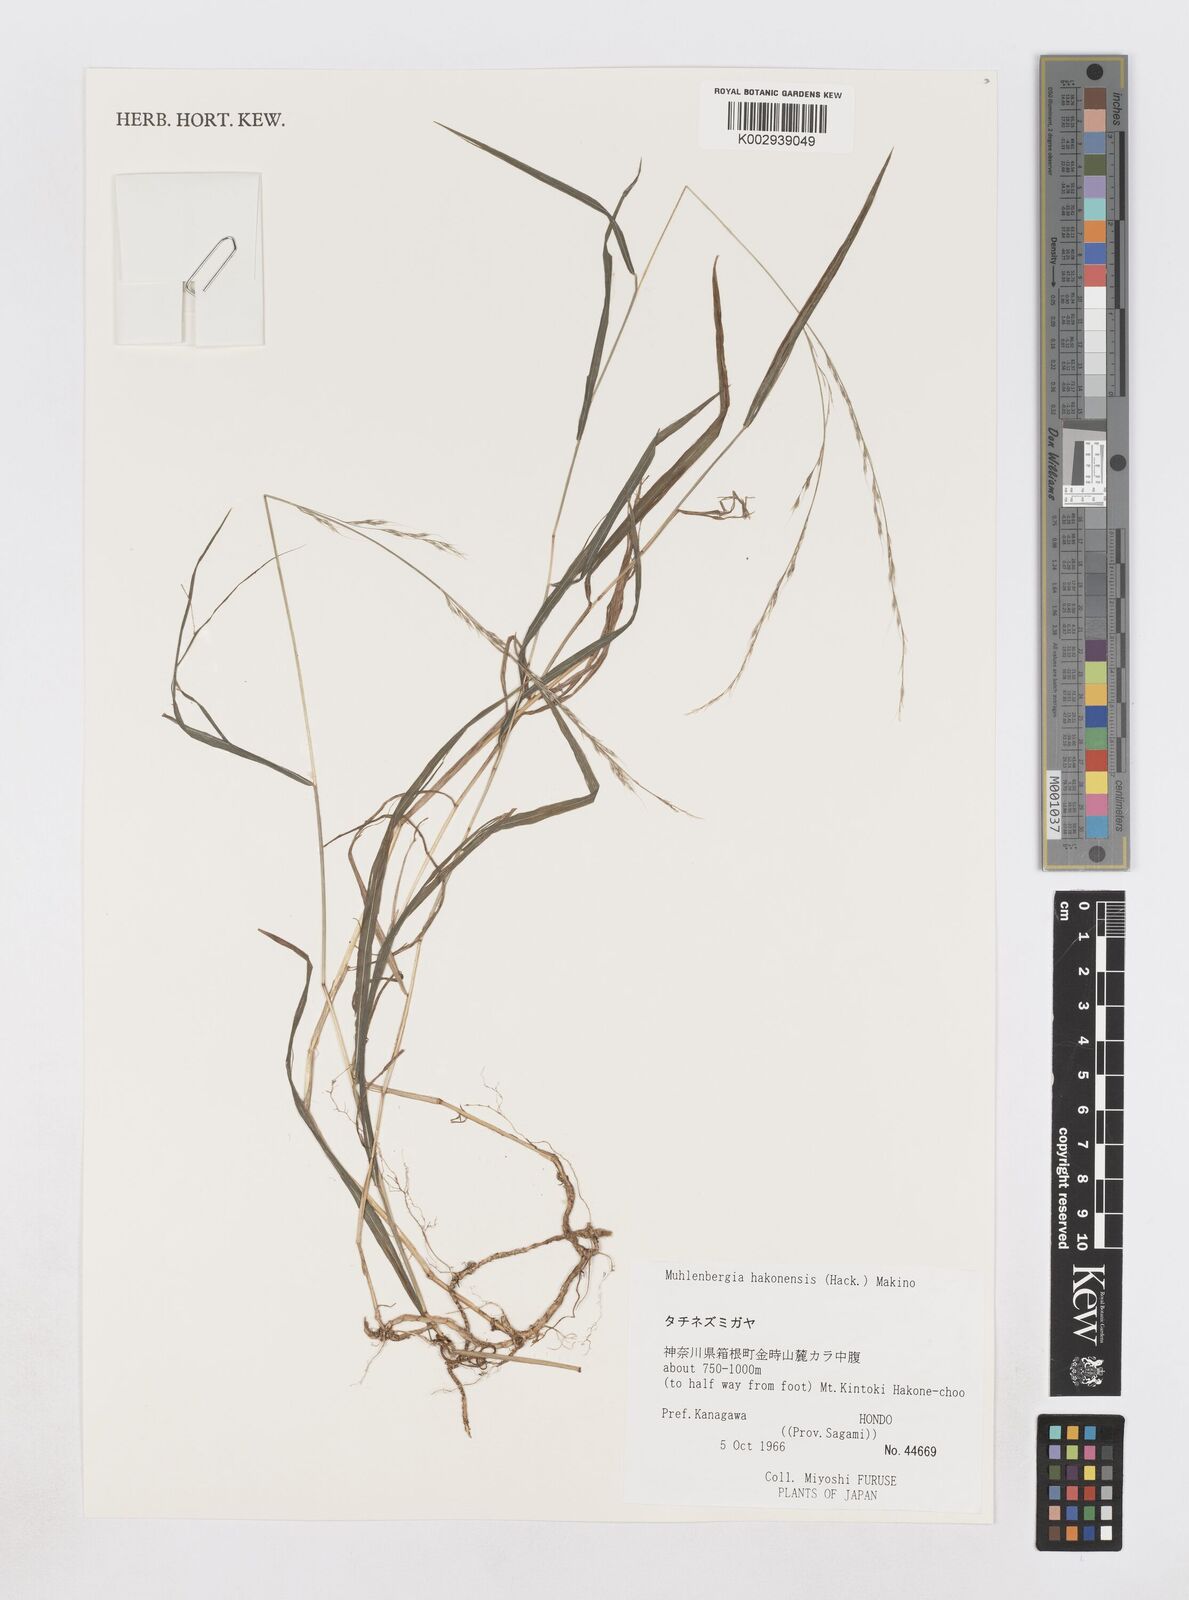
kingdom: Plantae
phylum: Tracheophyta
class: Liliopsida
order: Poales
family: Poaceae
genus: Muhlenbergia
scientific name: Muhlenbergia hakonensis
